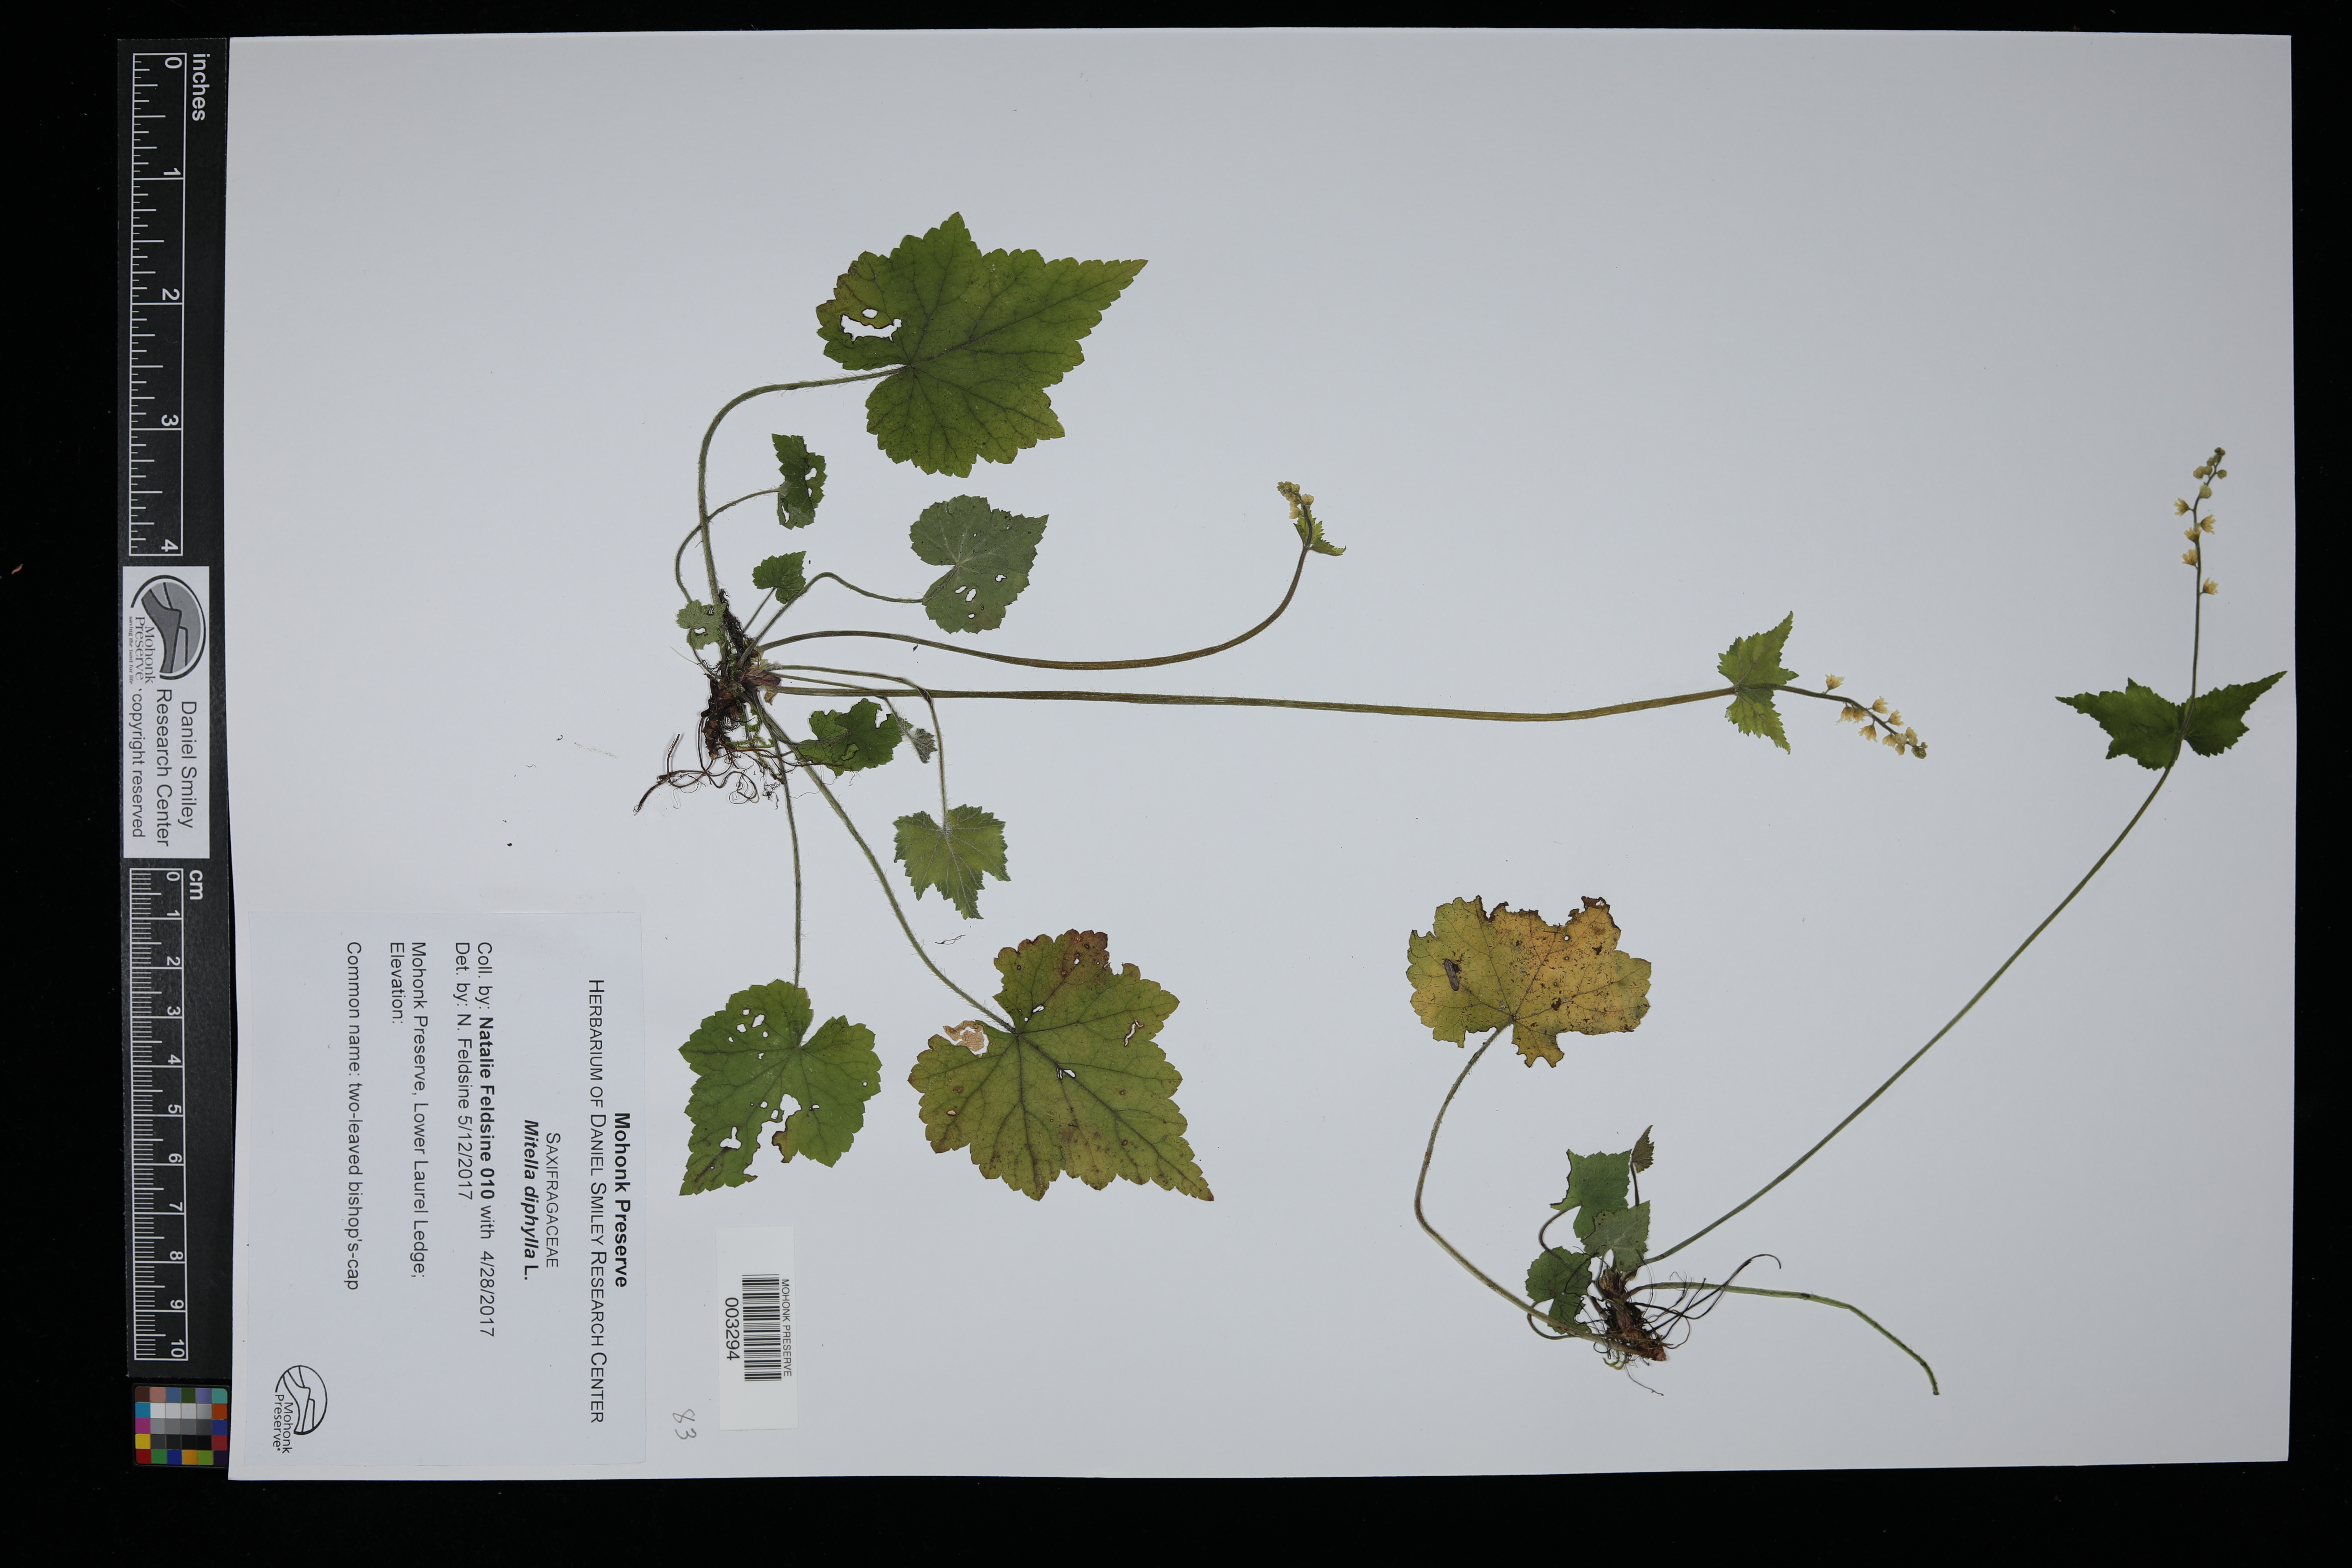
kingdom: Plantae
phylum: Tracheophyta
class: Magnoliopsida
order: Saxifragales
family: Saxifragaceae
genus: Mitella
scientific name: Mitella diphylla
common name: Coolwort
